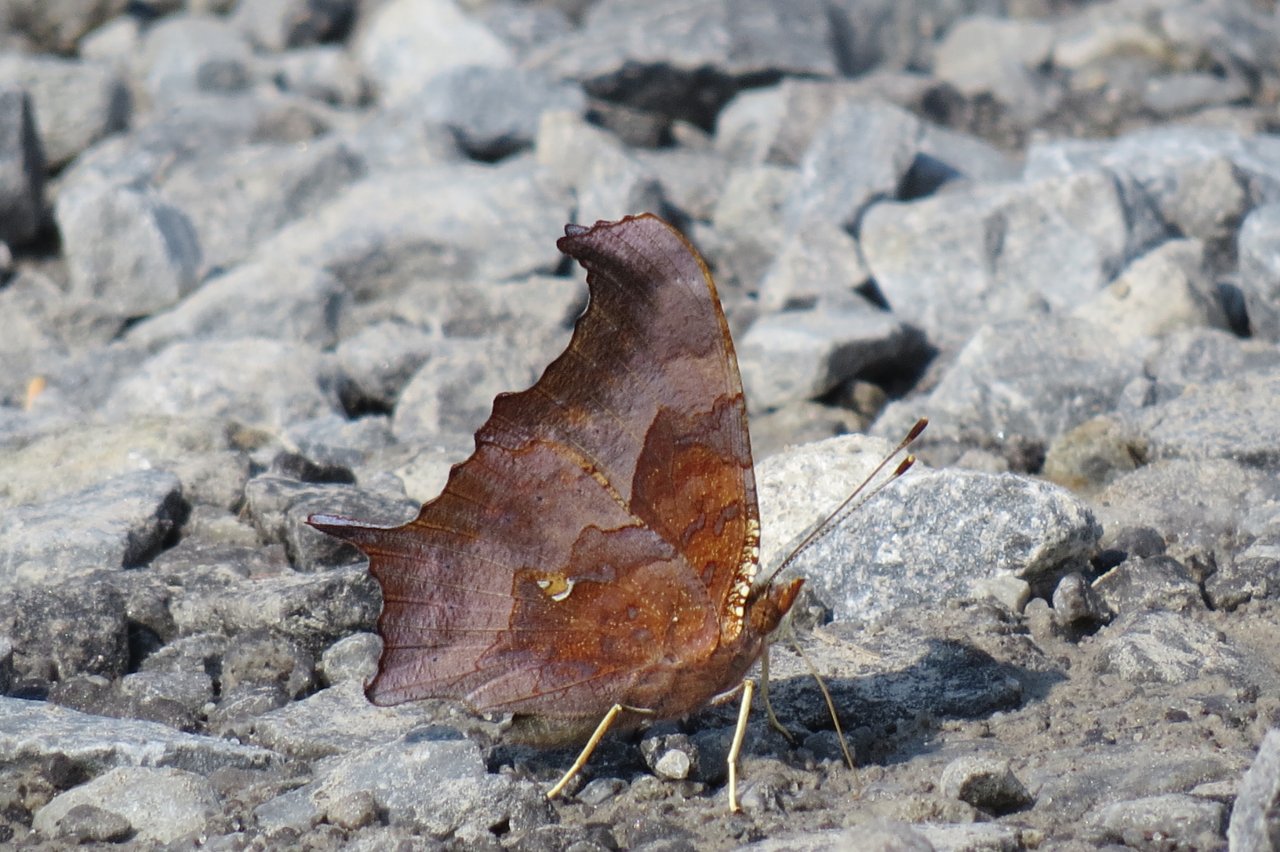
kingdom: Animalia
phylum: Arthropoda
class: Insecta
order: Lepidoptera
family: Nymphalidae
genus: Polygonia
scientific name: Polygonia interrogationis
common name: Question Mark
